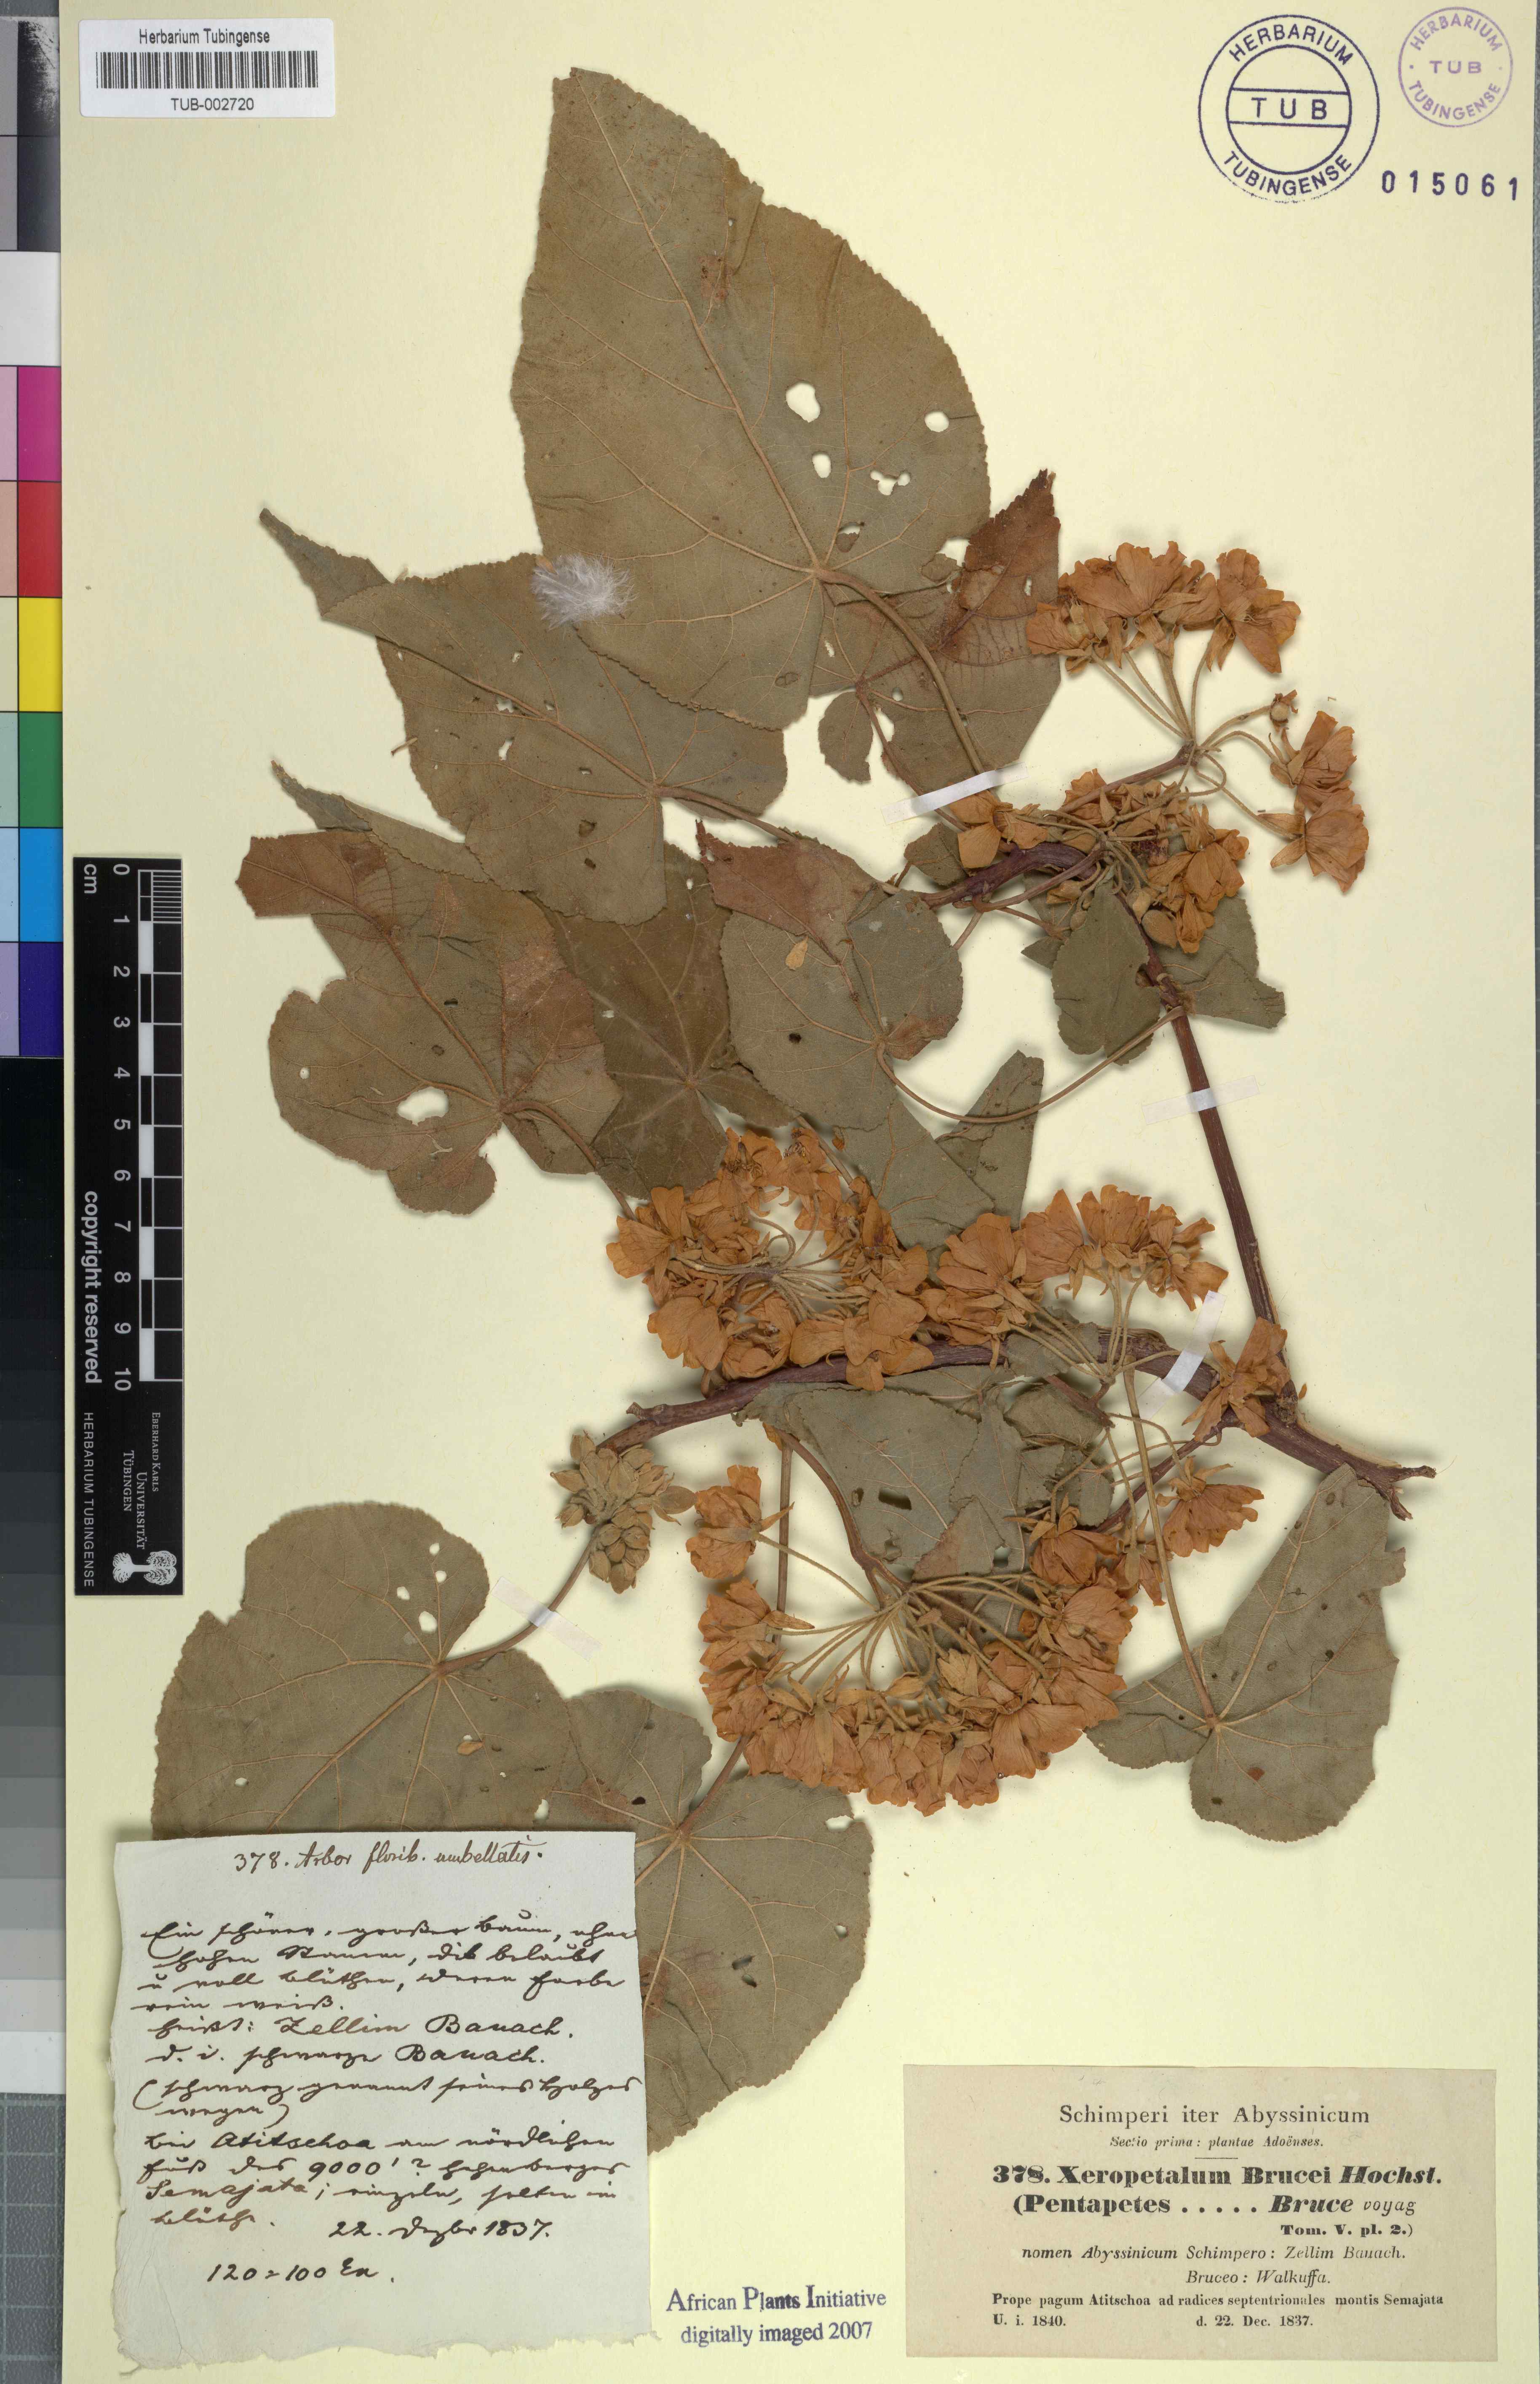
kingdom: Plantae
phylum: Tracheophyta
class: Magnoliopsida
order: Malvales
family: Malvaceae
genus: Dombeya
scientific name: Dombeya torrida
